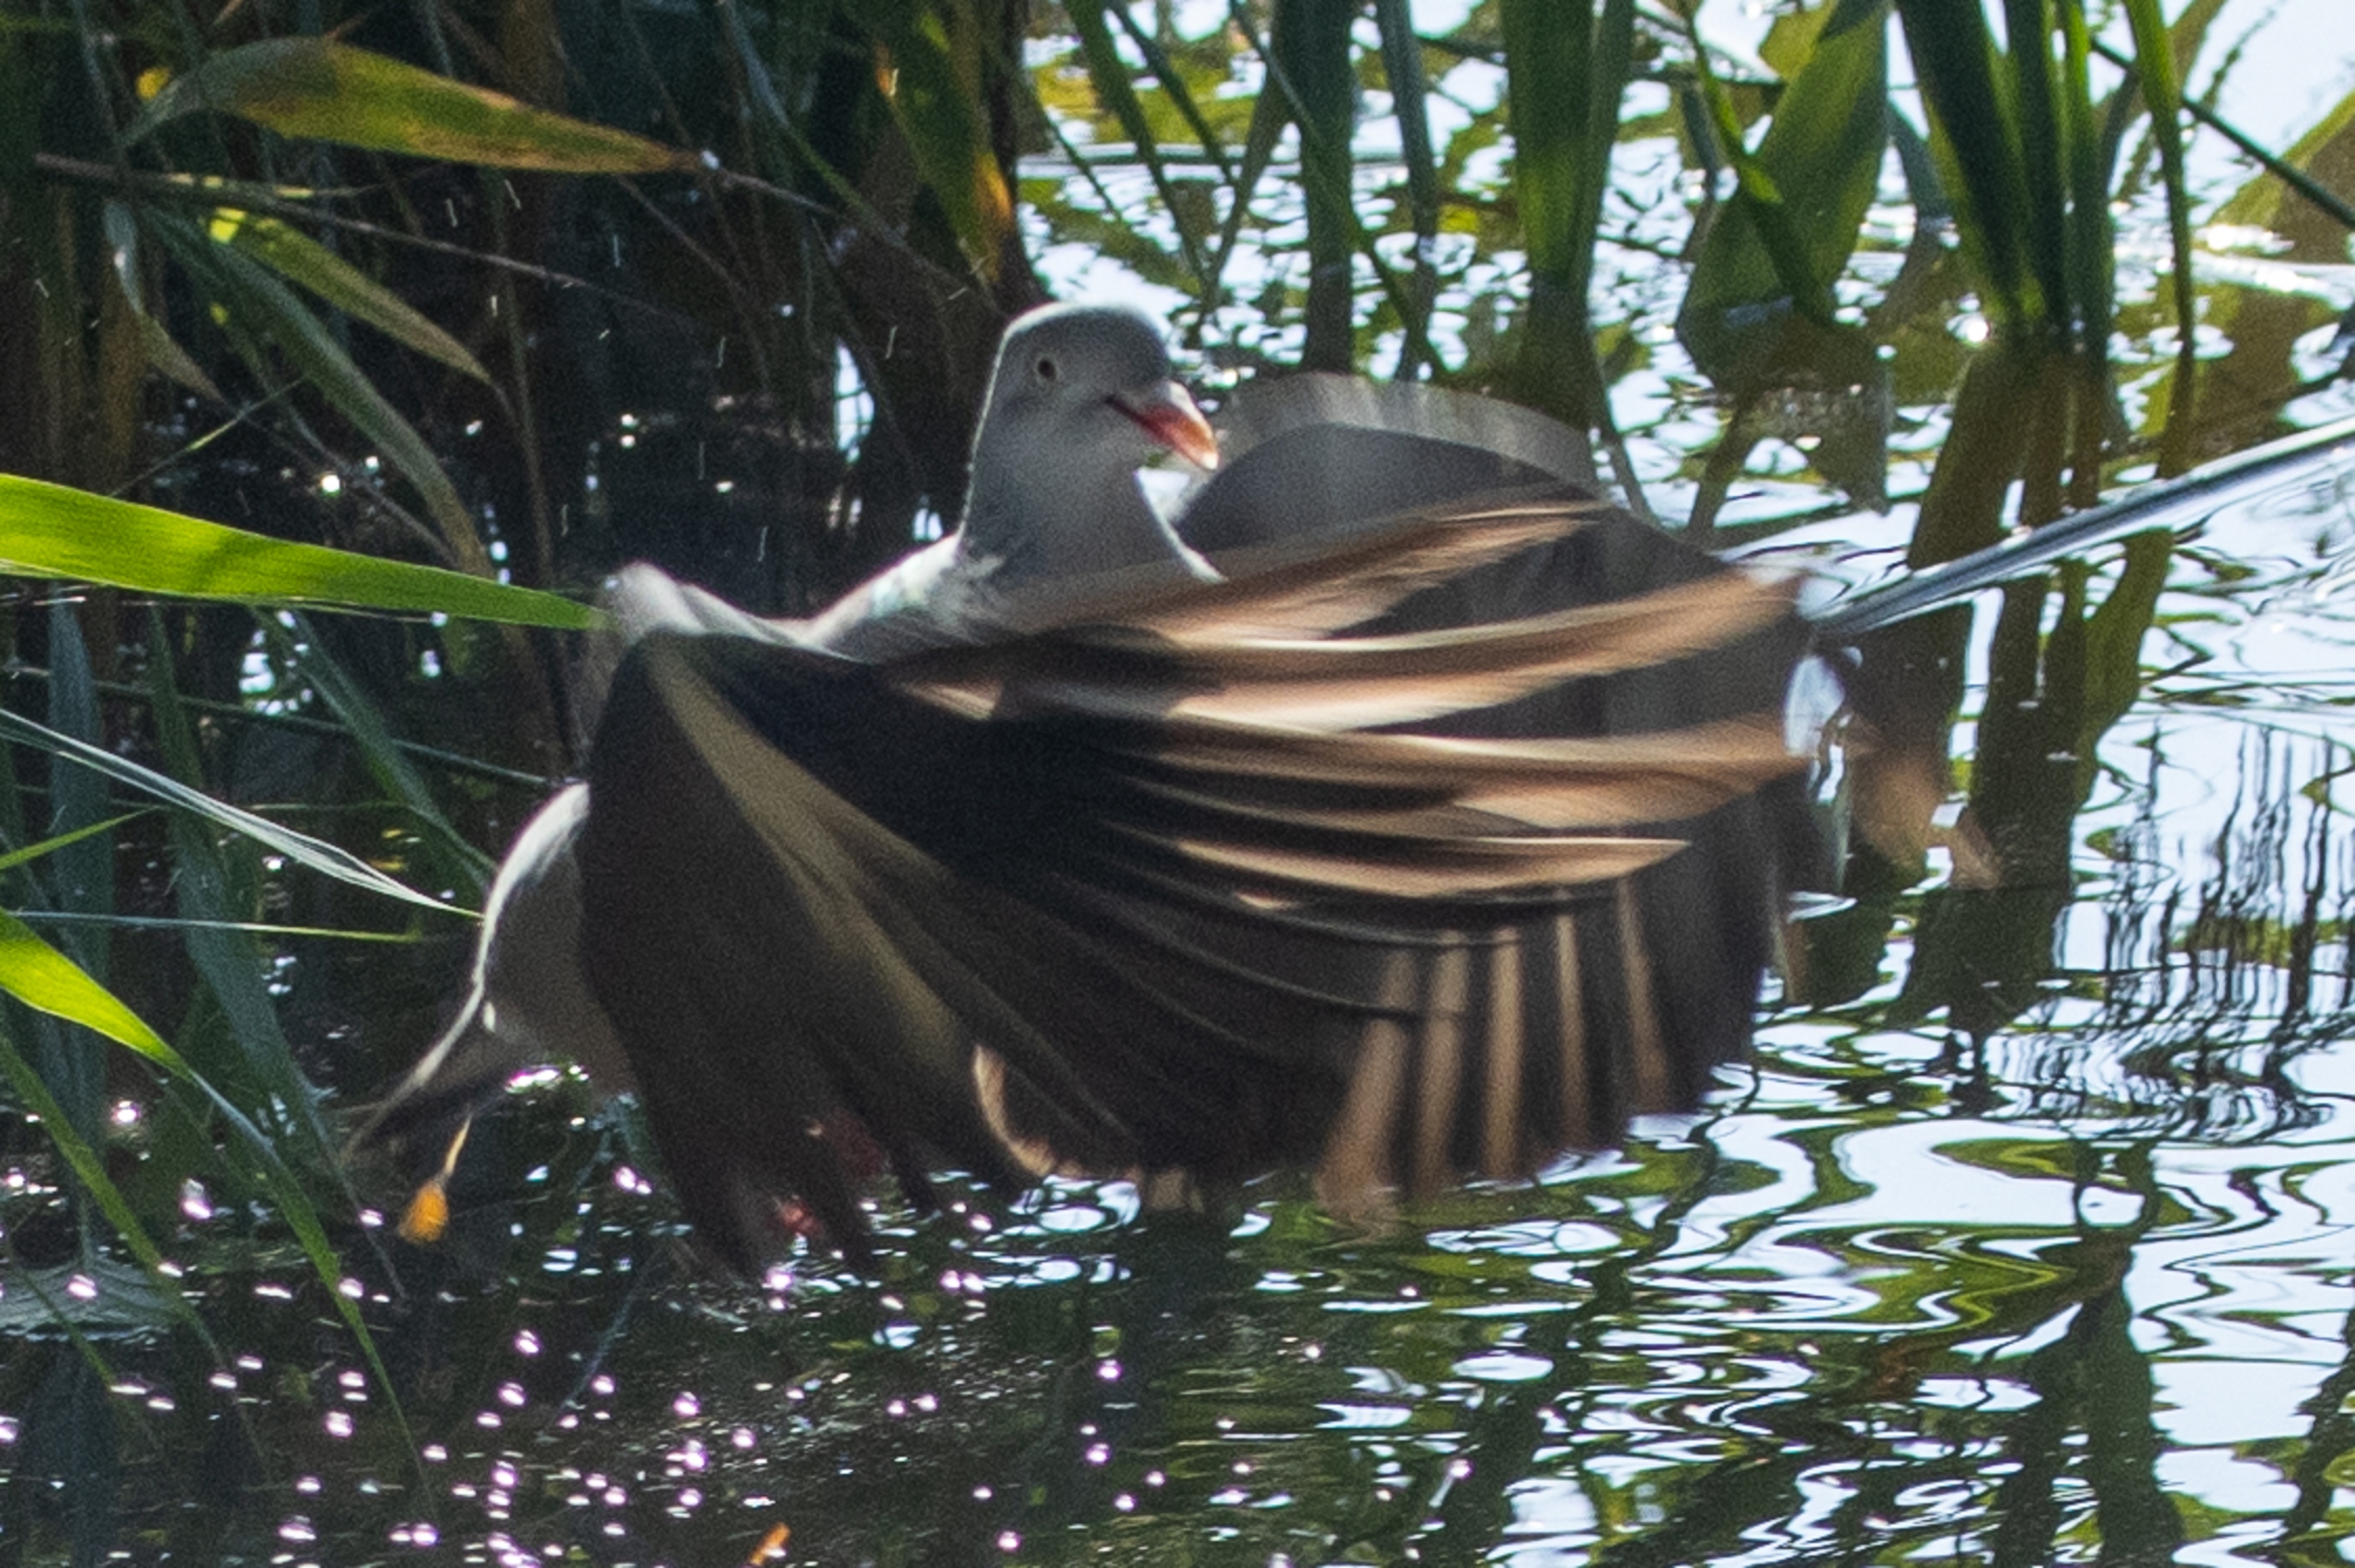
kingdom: Animalia
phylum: Chordata
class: Aves
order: Columbiformes
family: Columbidae
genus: Columba
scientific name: Columba palumbus
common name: Ringdue
